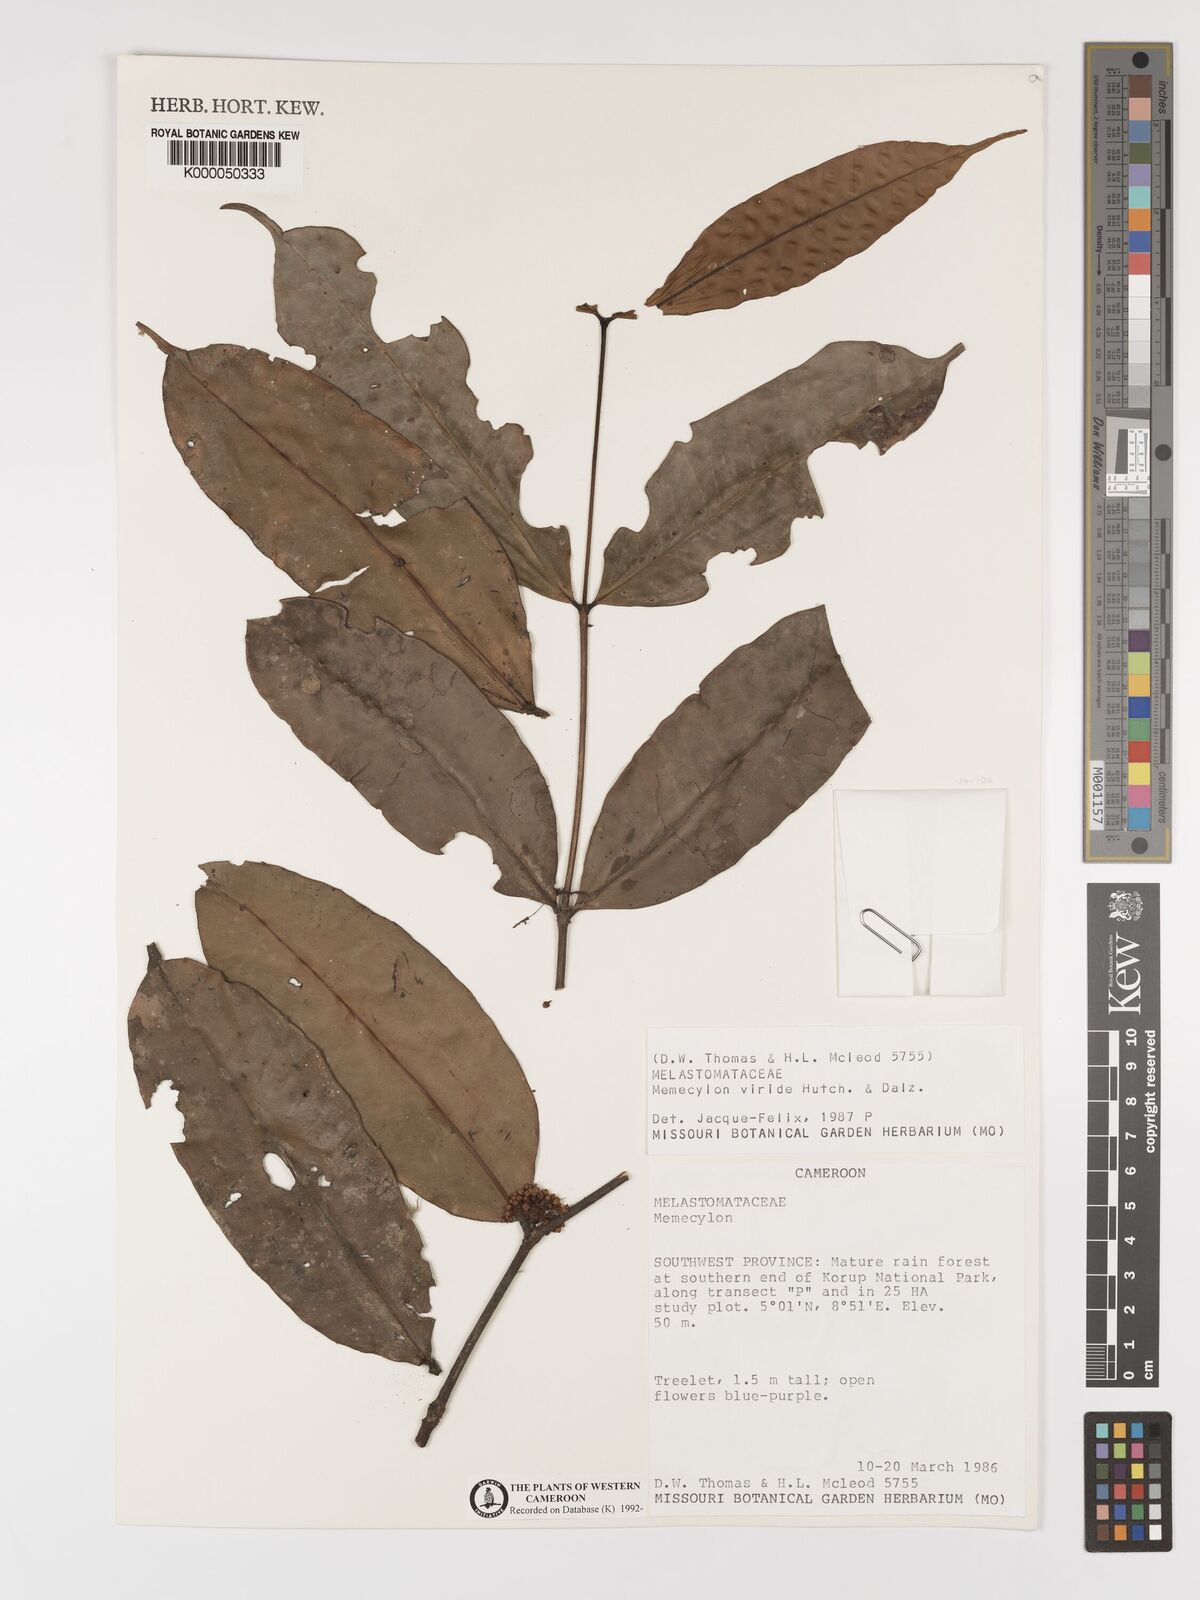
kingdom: Plantae
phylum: Tracheophyta
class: Magnoliopsida
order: Myrtales
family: Melastomataceae
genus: Memecylon
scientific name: Memecylon viride
